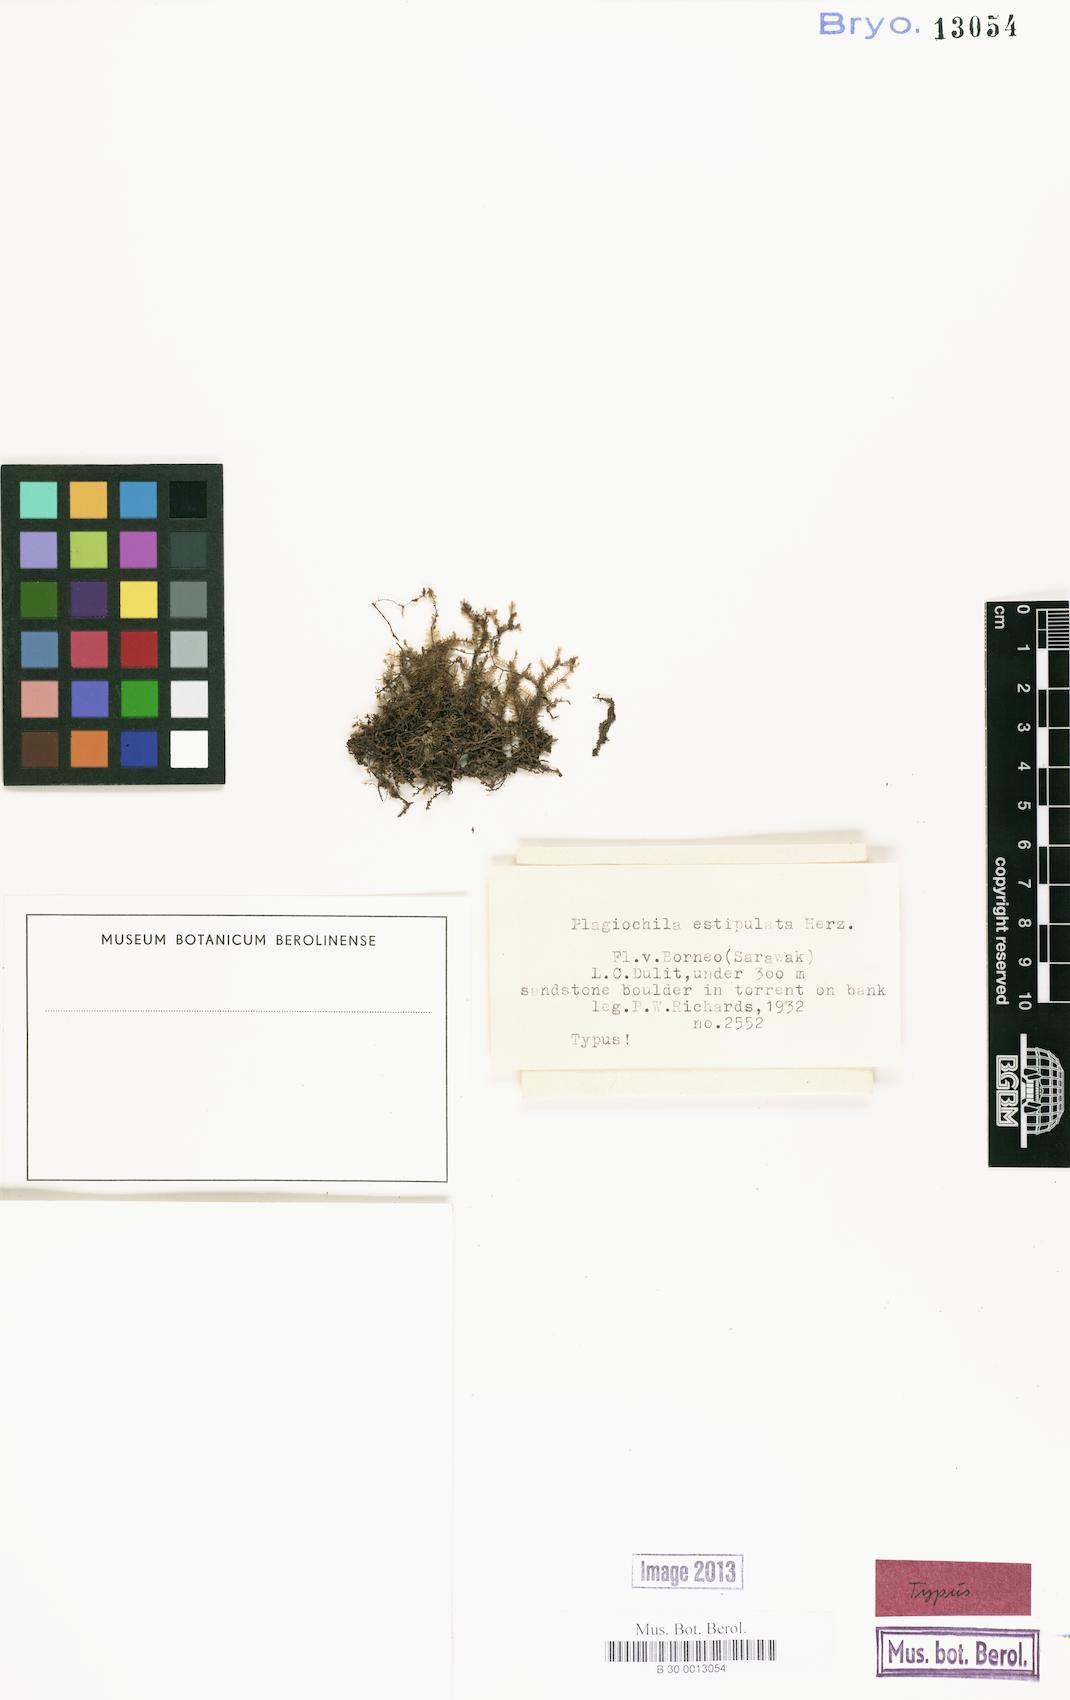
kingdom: Plantae
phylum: Marchantiophyta
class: Jungermanniopsida
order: Jungermanniales
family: Plagiochilaceae
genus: Plagiochila
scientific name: Plagiochila blepharophora
